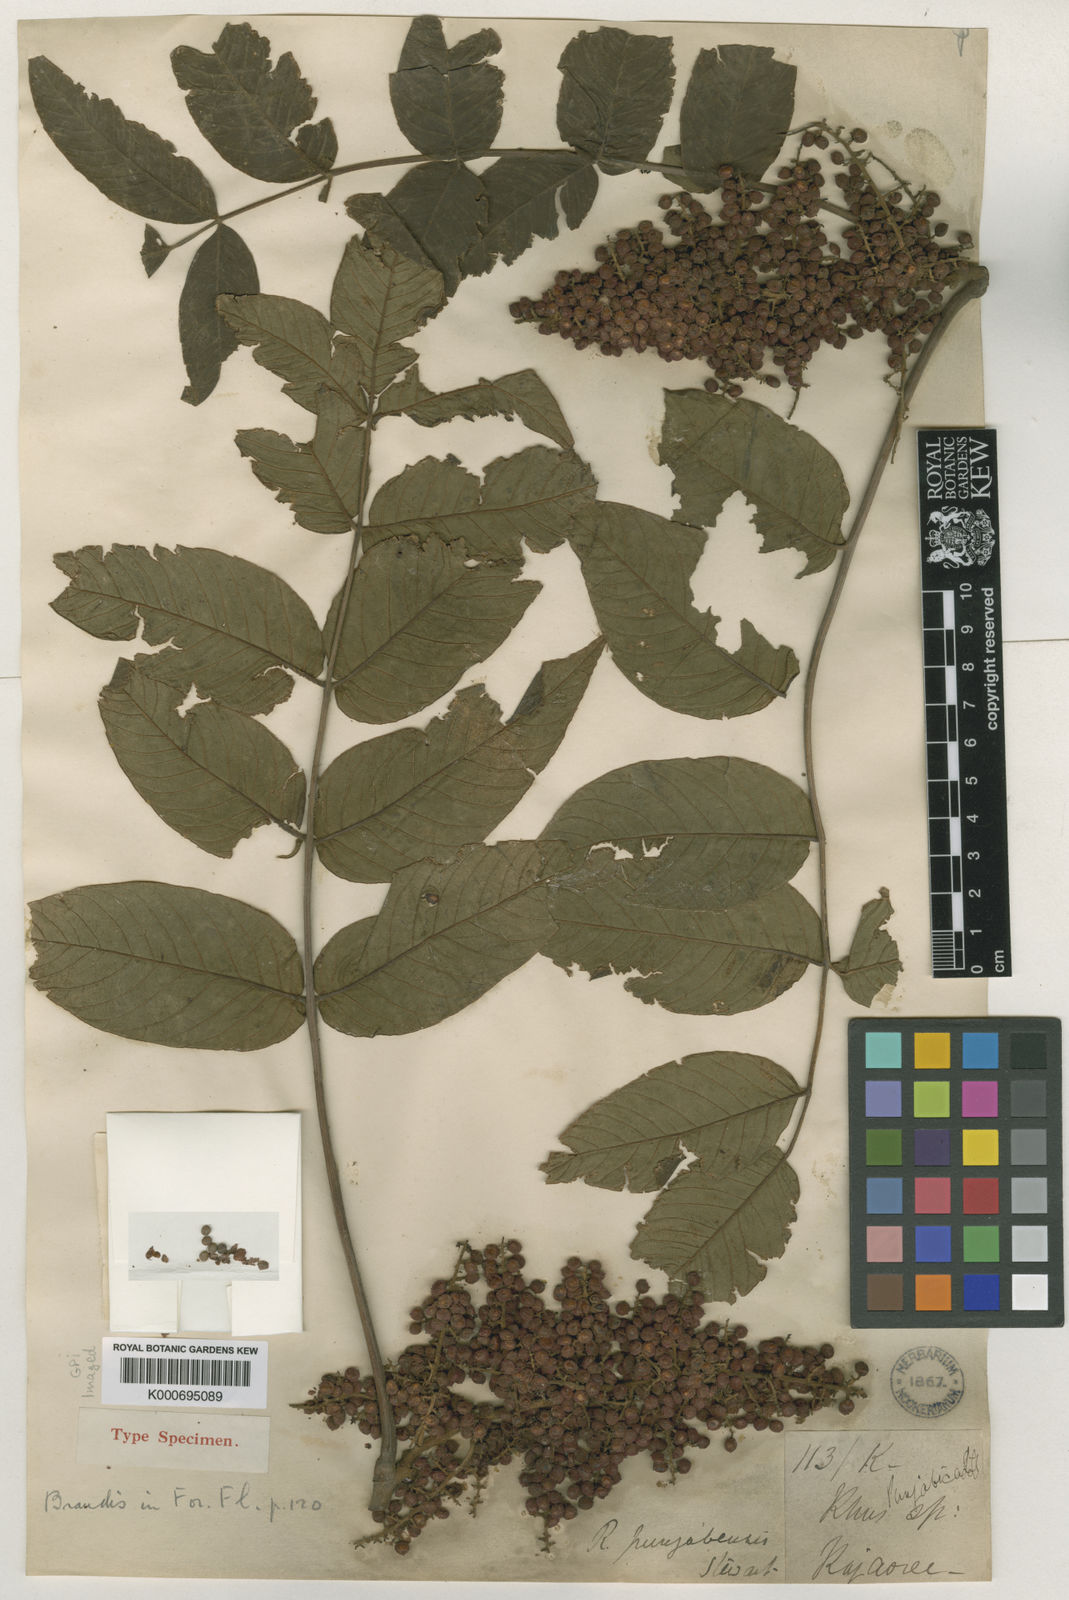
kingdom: Plantae
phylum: Tracheophyta
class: Magnoliopsida
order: Sapindales
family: Anacardiaceae
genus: Rhus
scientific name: Rhus punjabensis
